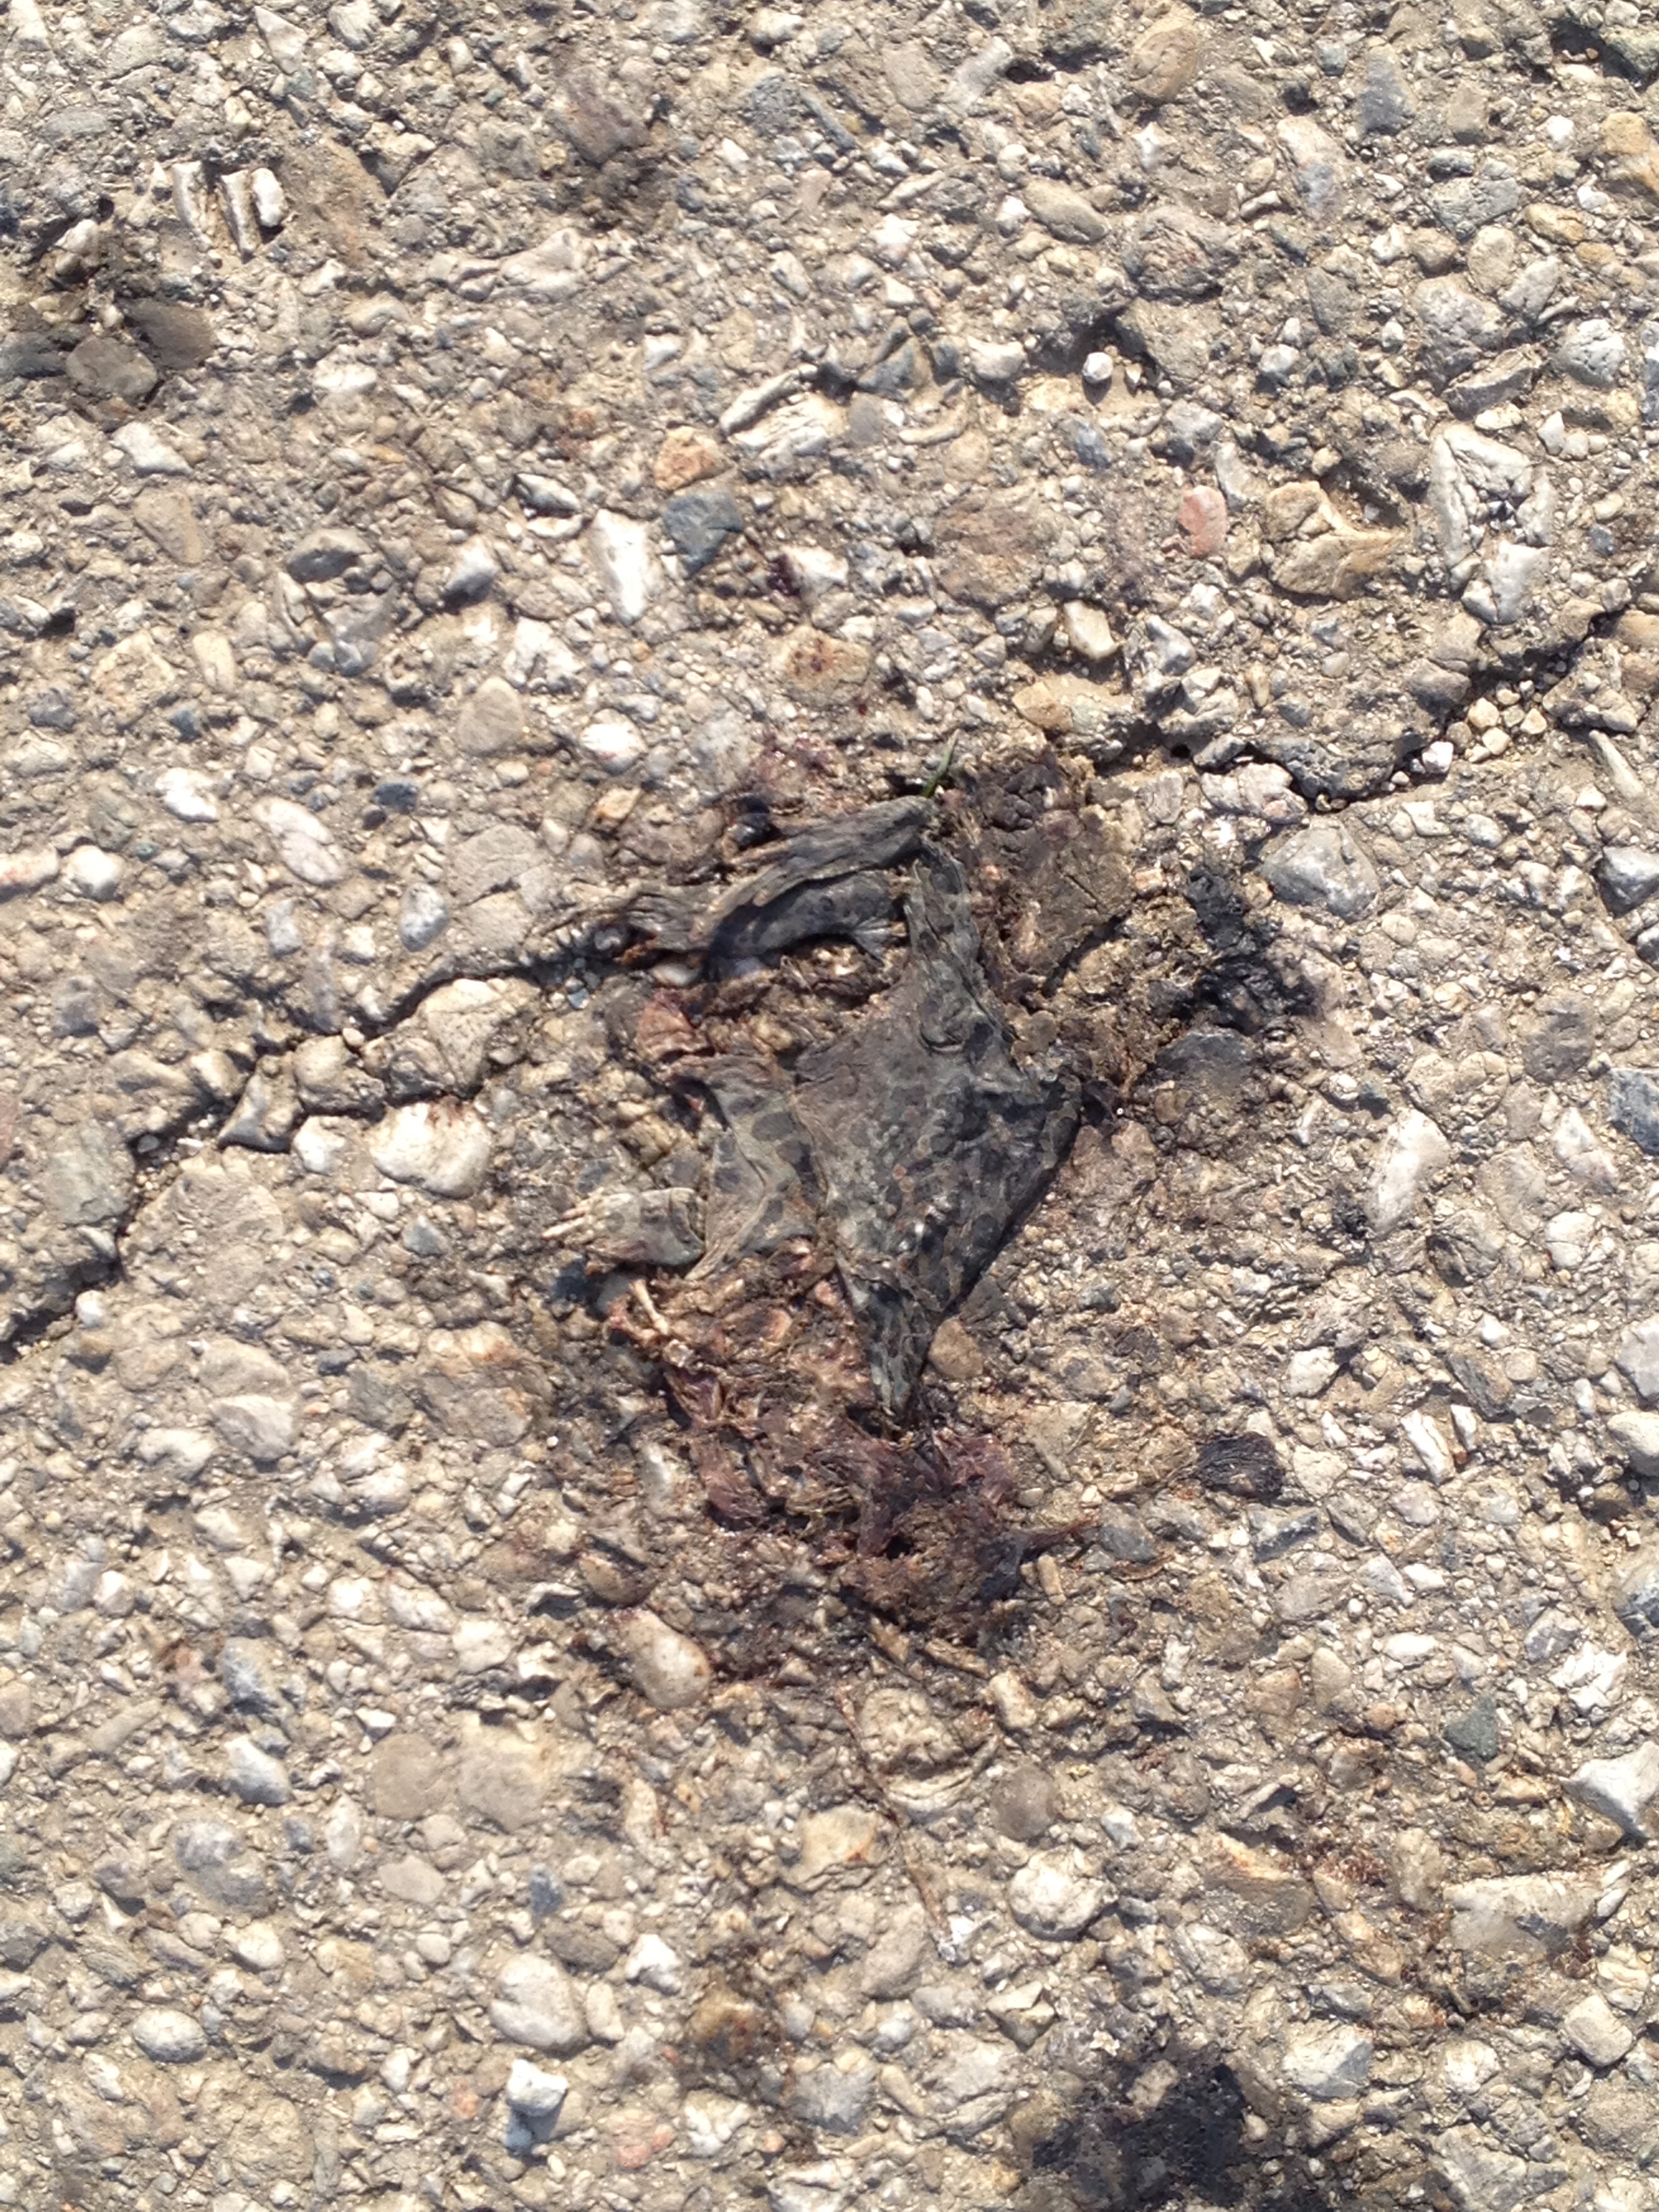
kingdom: Animalia
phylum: Chordata
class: Amphibia
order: Anura
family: Bufonidae
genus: Bufotes
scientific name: Bufotes viridis
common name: European green toad
